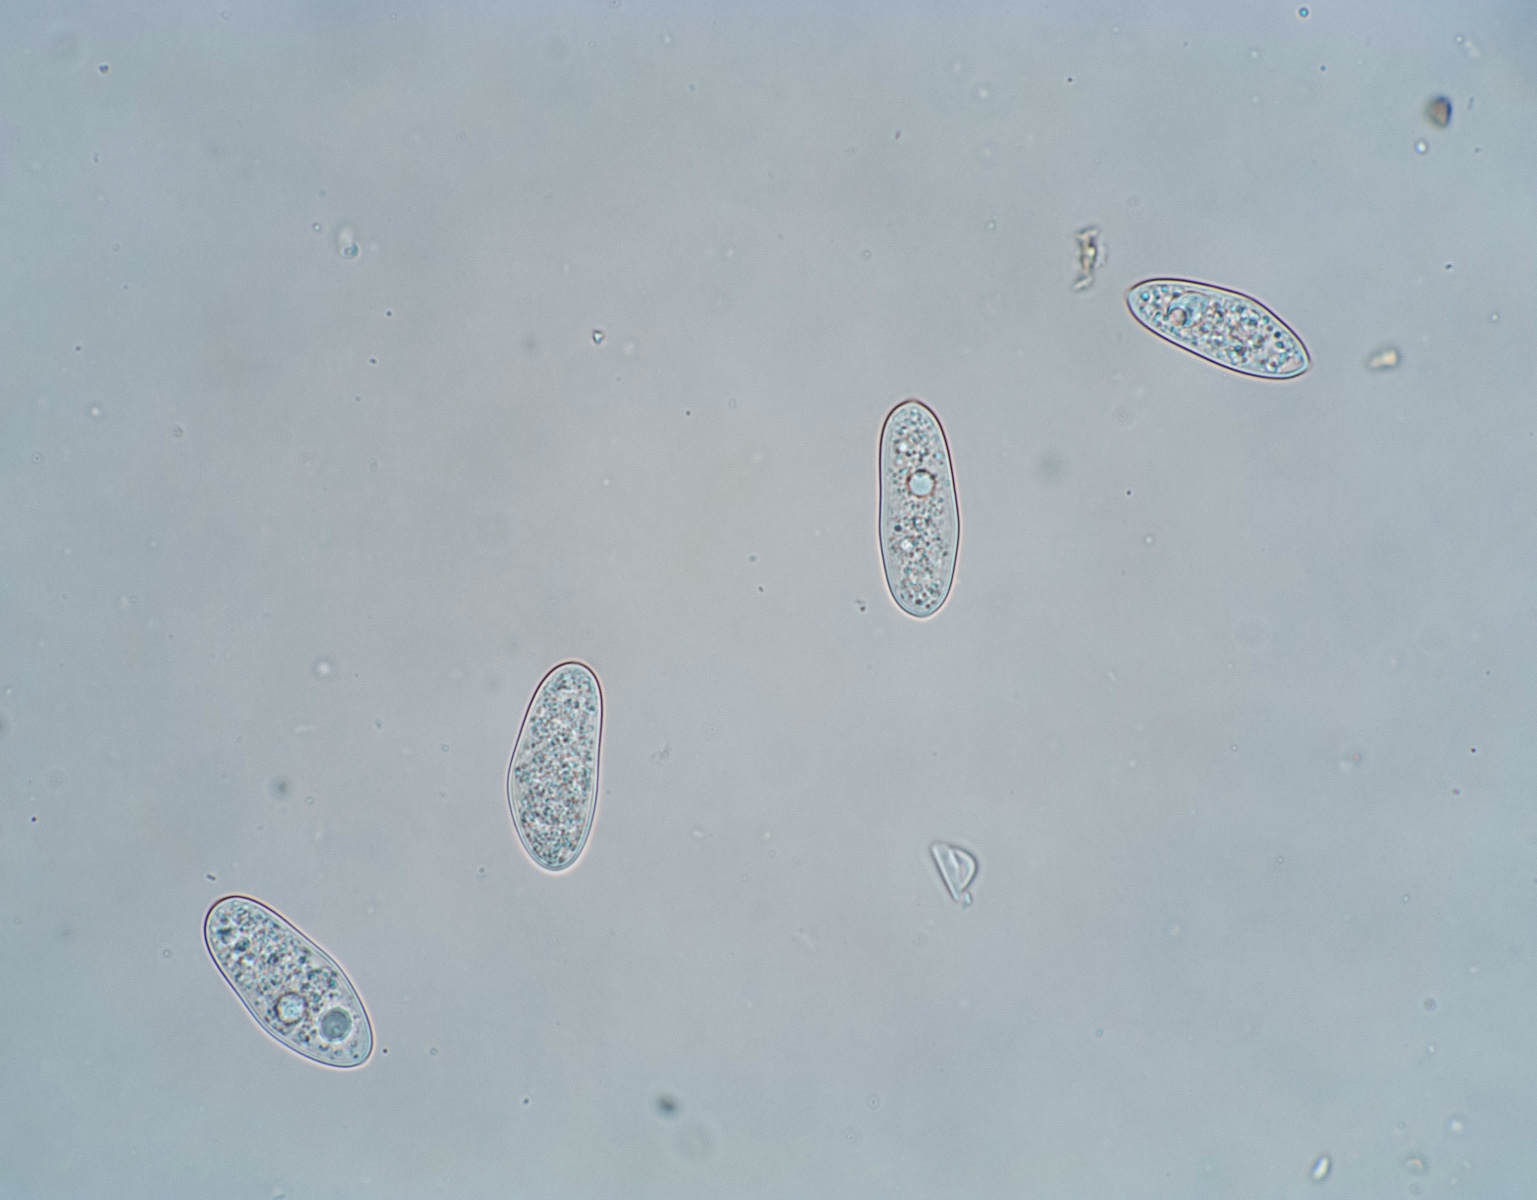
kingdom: Plantae
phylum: Bryophyta
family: Dothideomycetes
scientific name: Dothideomycetes
